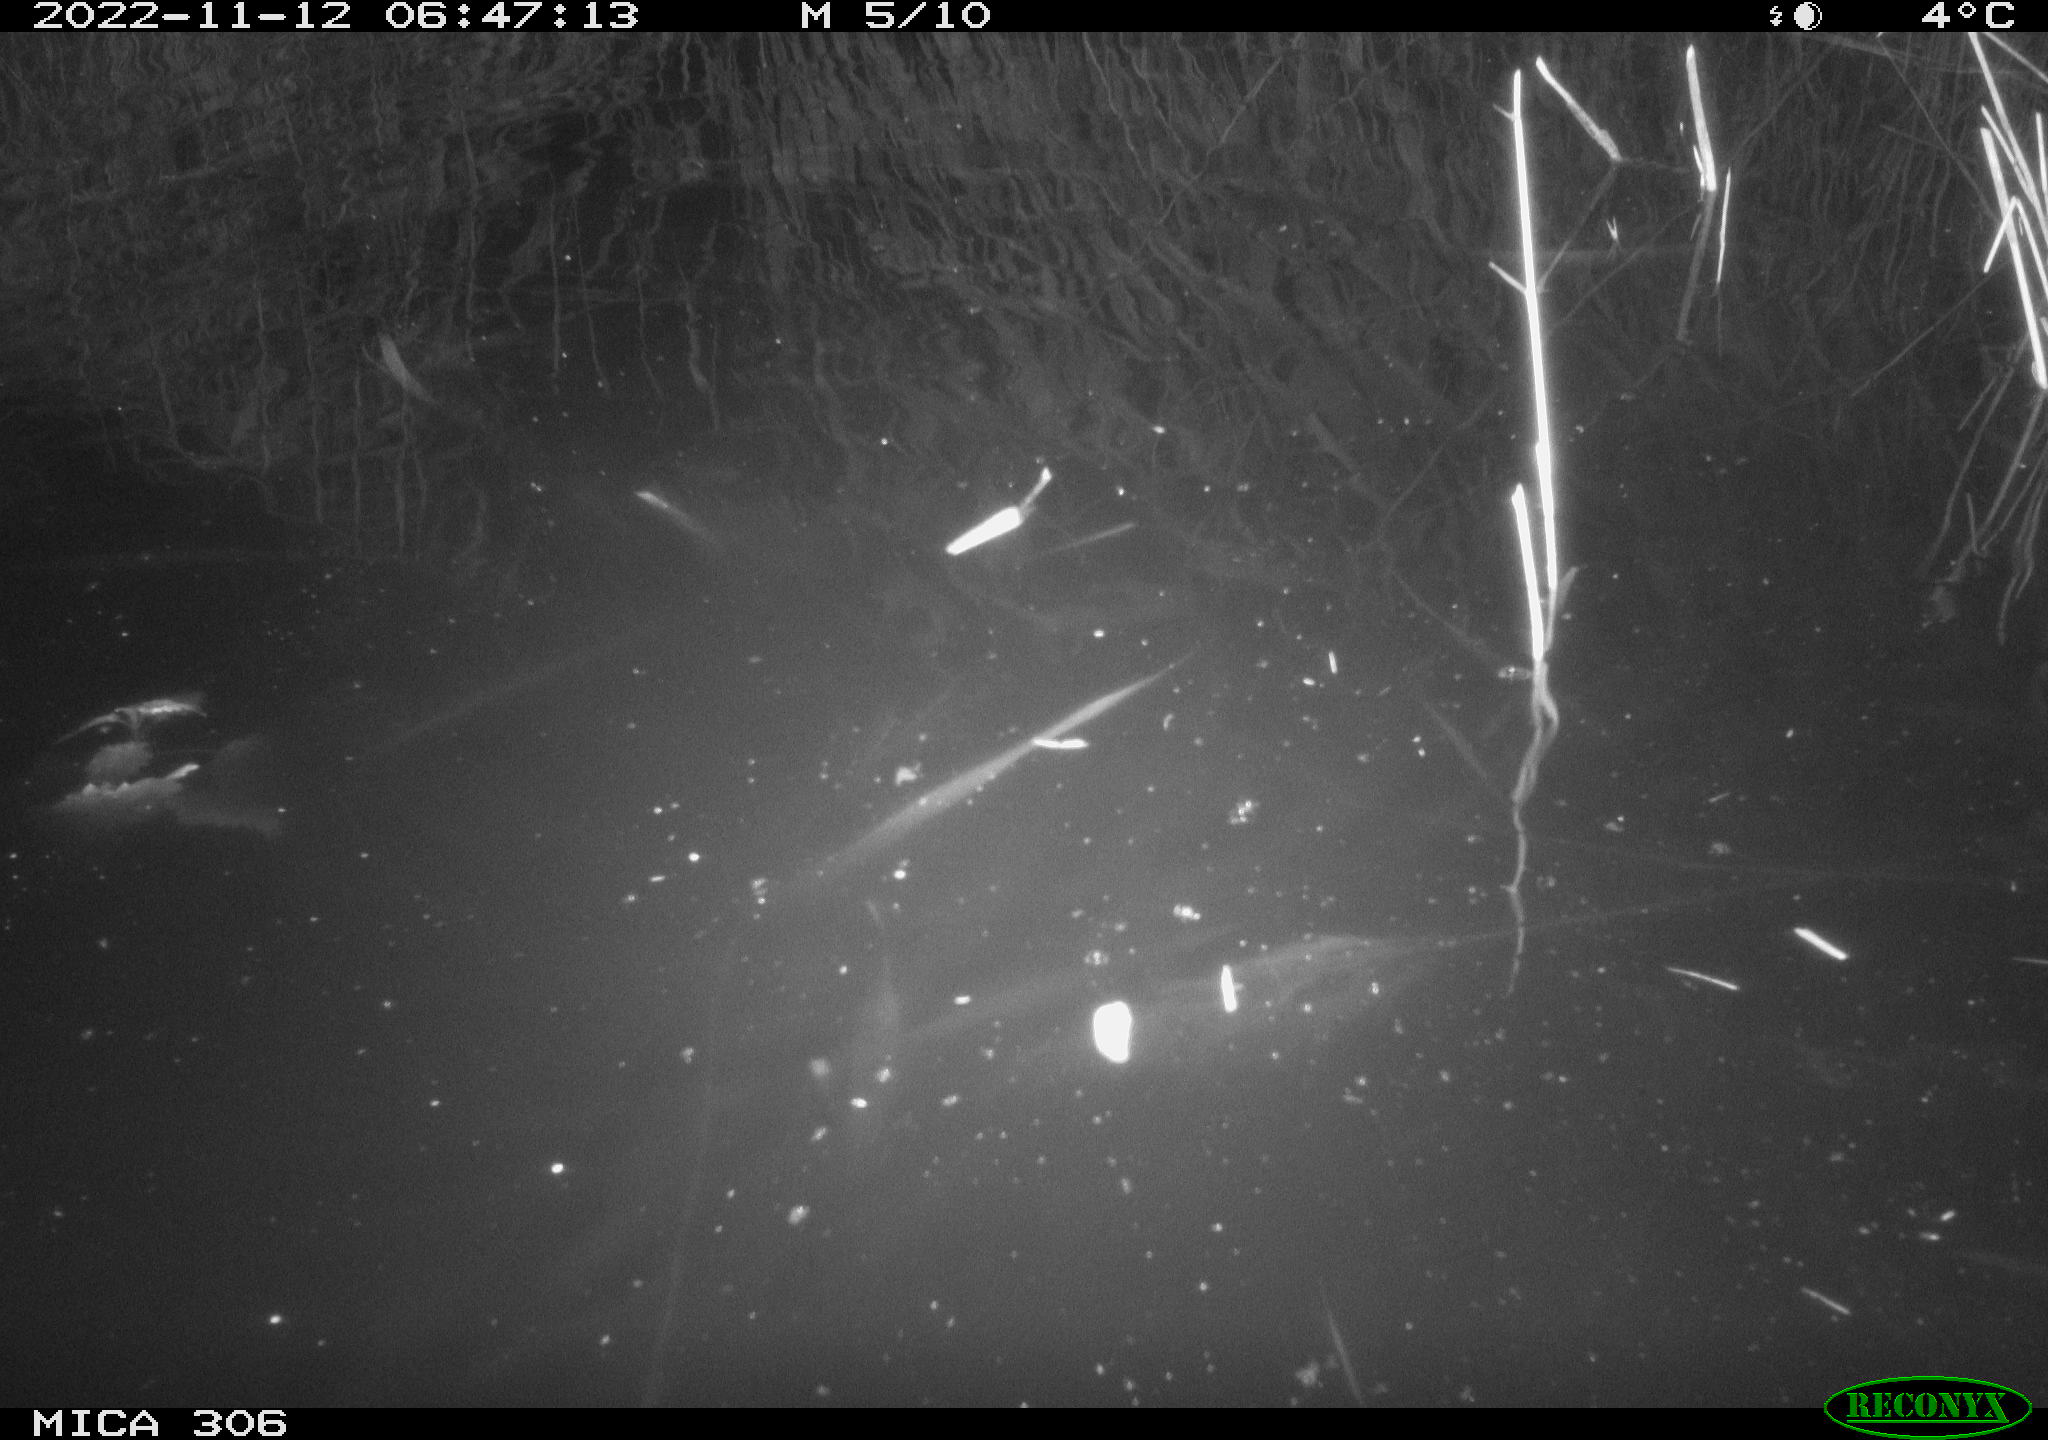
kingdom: Animalia
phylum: Chordata
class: Mammalia
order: Rodentia
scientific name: Rodentia
